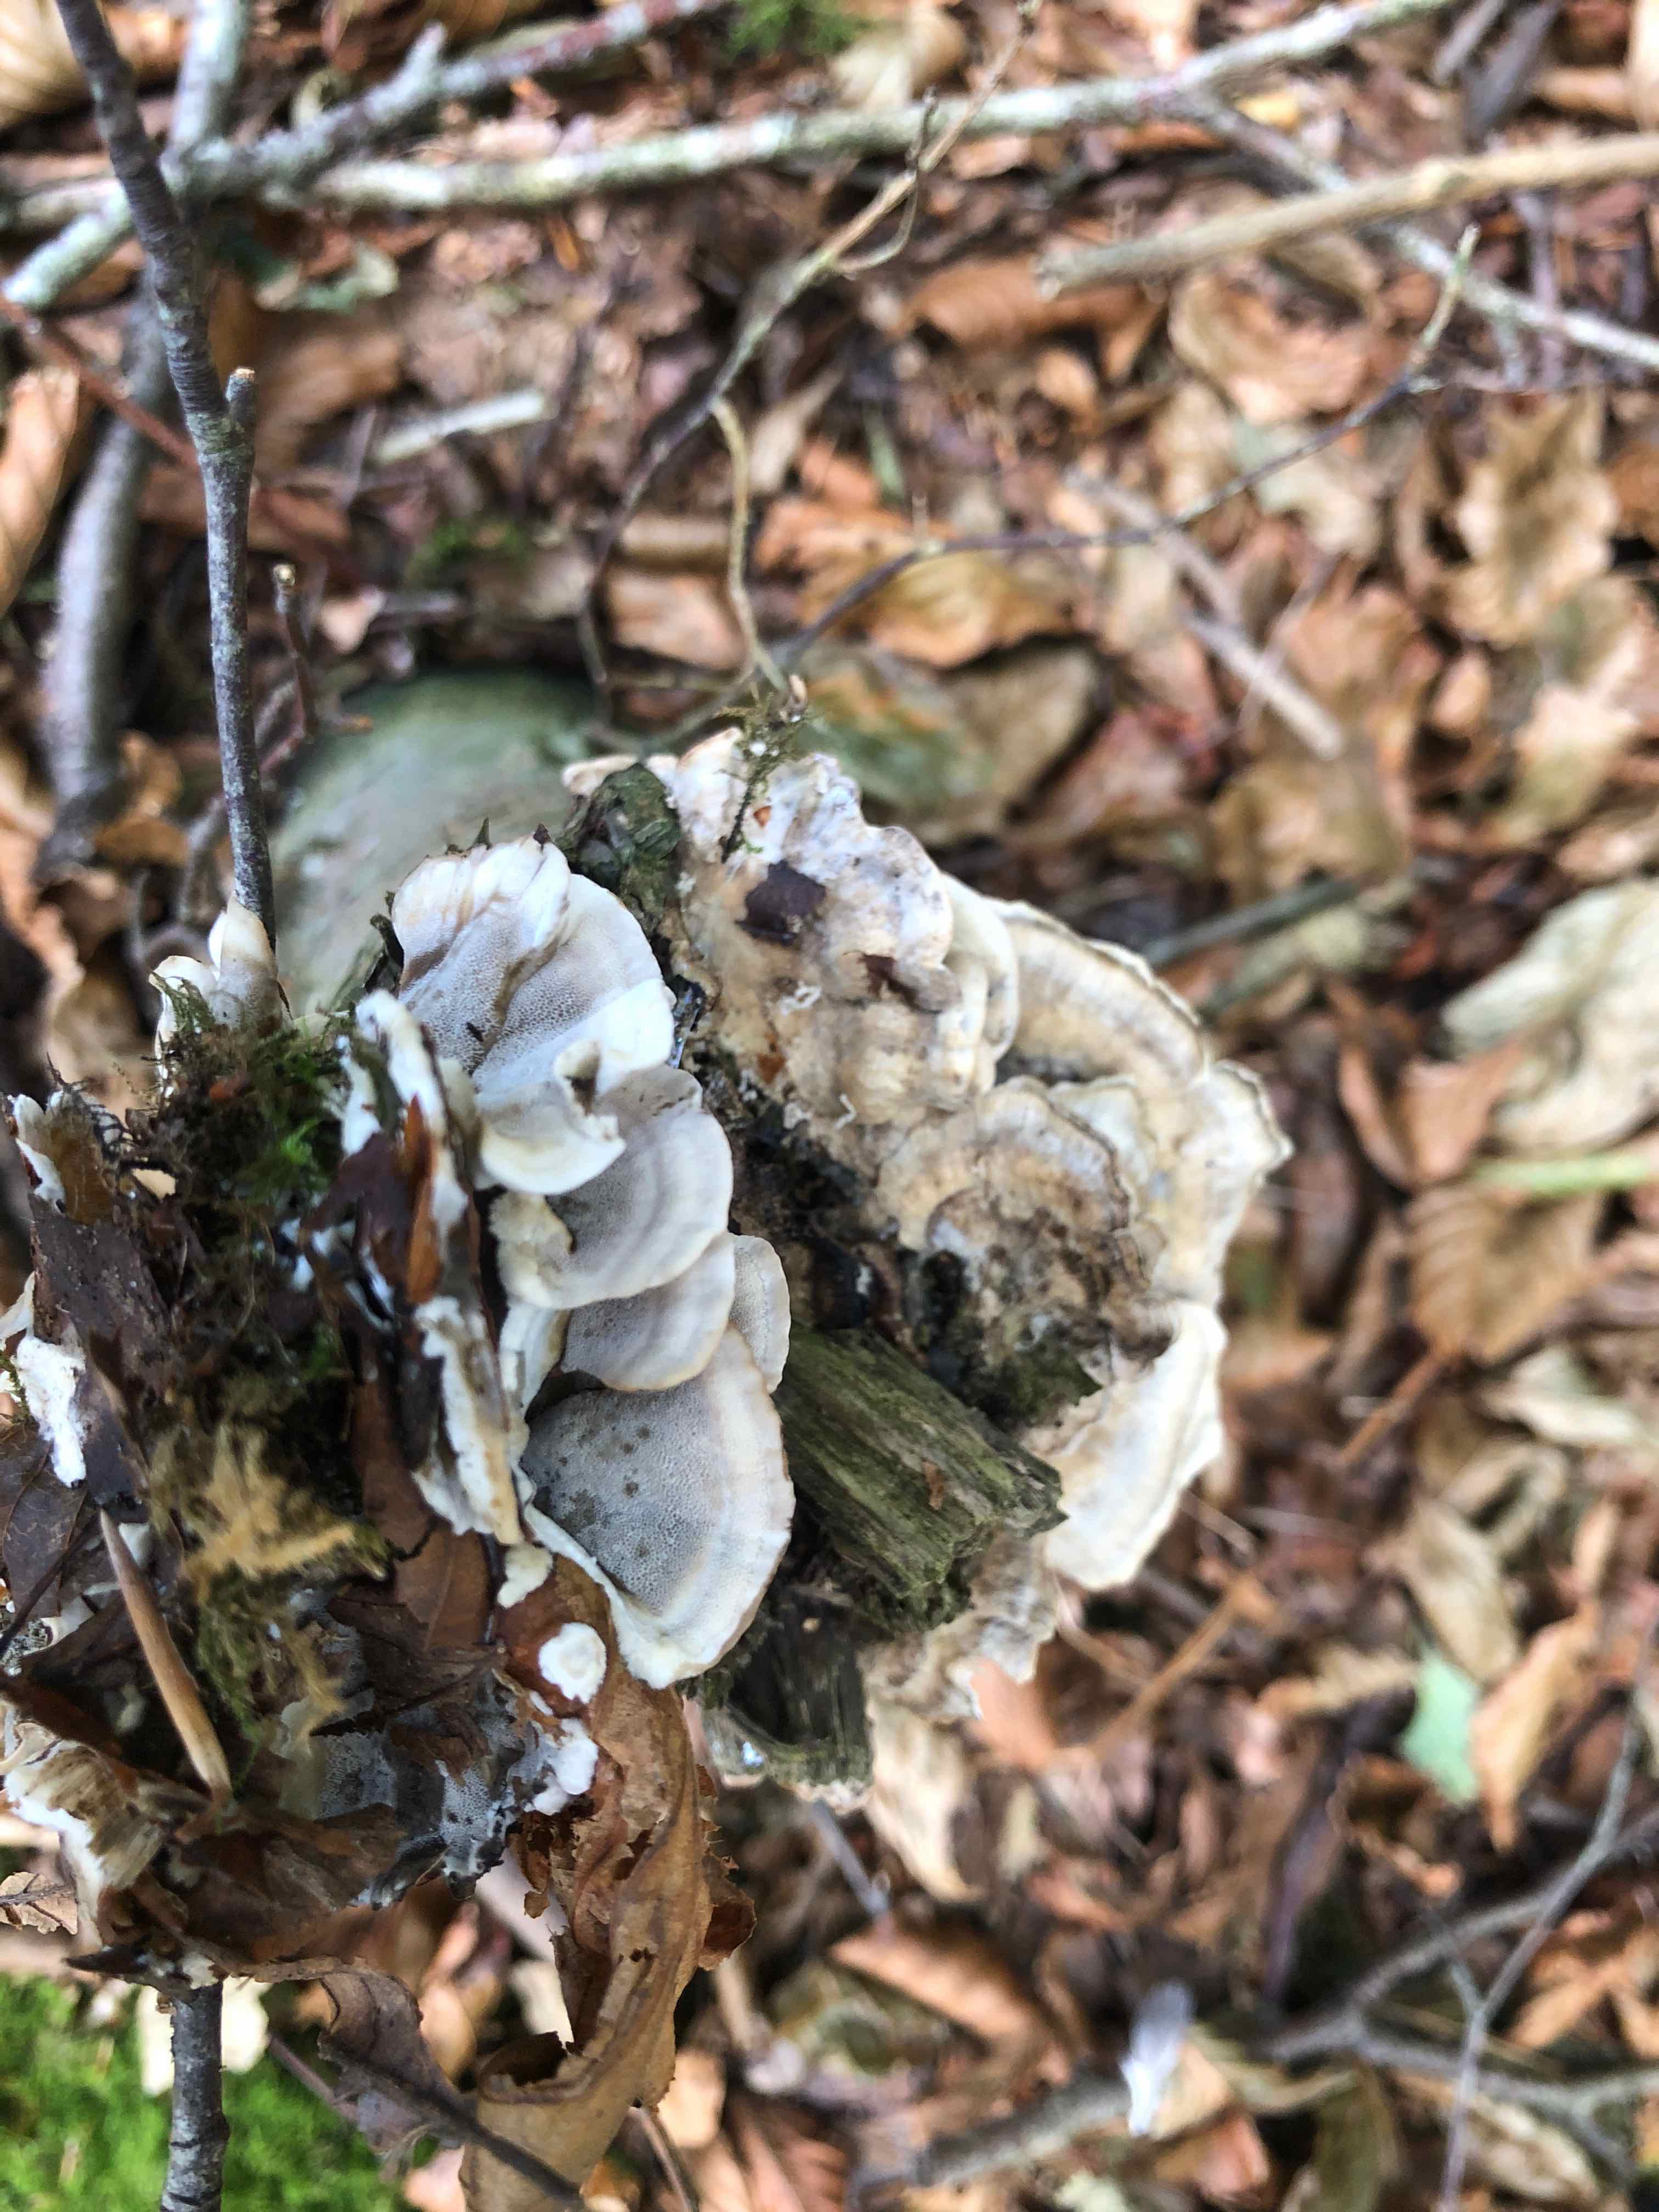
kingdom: Fungi
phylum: Basidiomycota
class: Agaricomycetes
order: Polyporales
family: Phanerochaetaceae
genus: Bjerkandera
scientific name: Bjerkandera adusta
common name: sveden sodporesvamp
